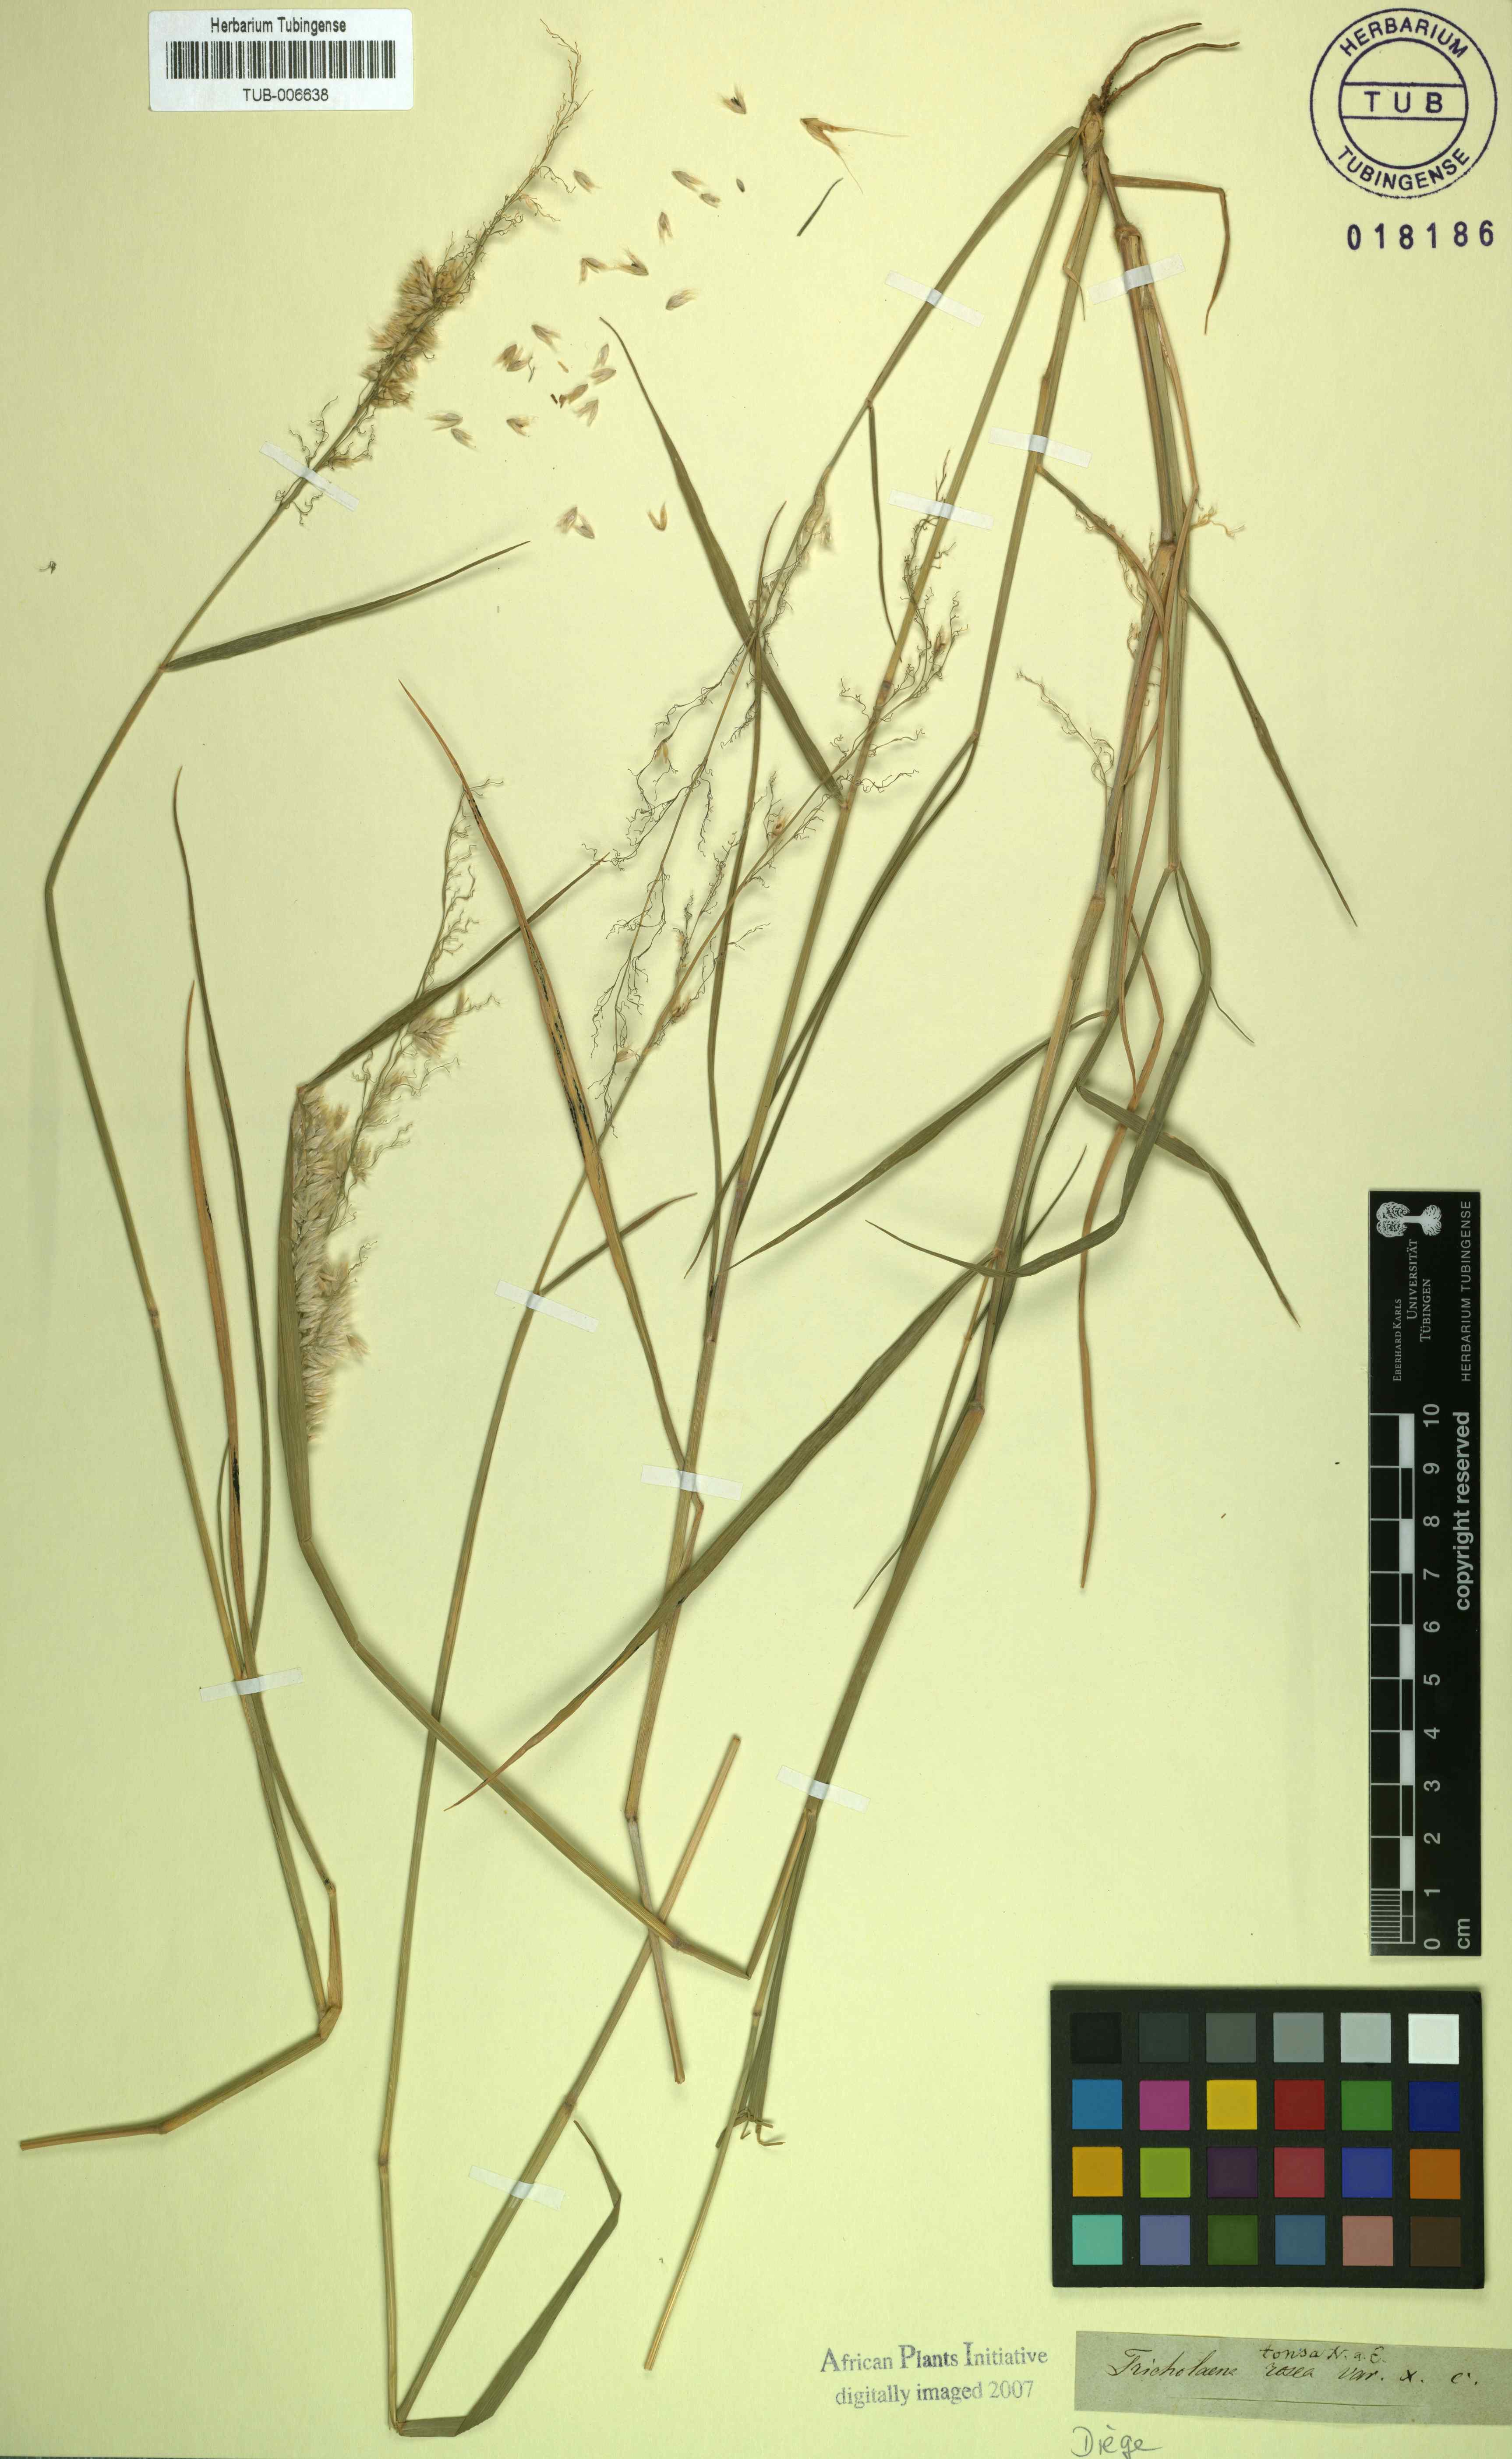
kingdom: Plantae
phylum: Tracheophyta
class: Liliopsida
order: Poales
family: Poaceae
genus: Tricholaena
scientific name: Tricholaena teneriffae
